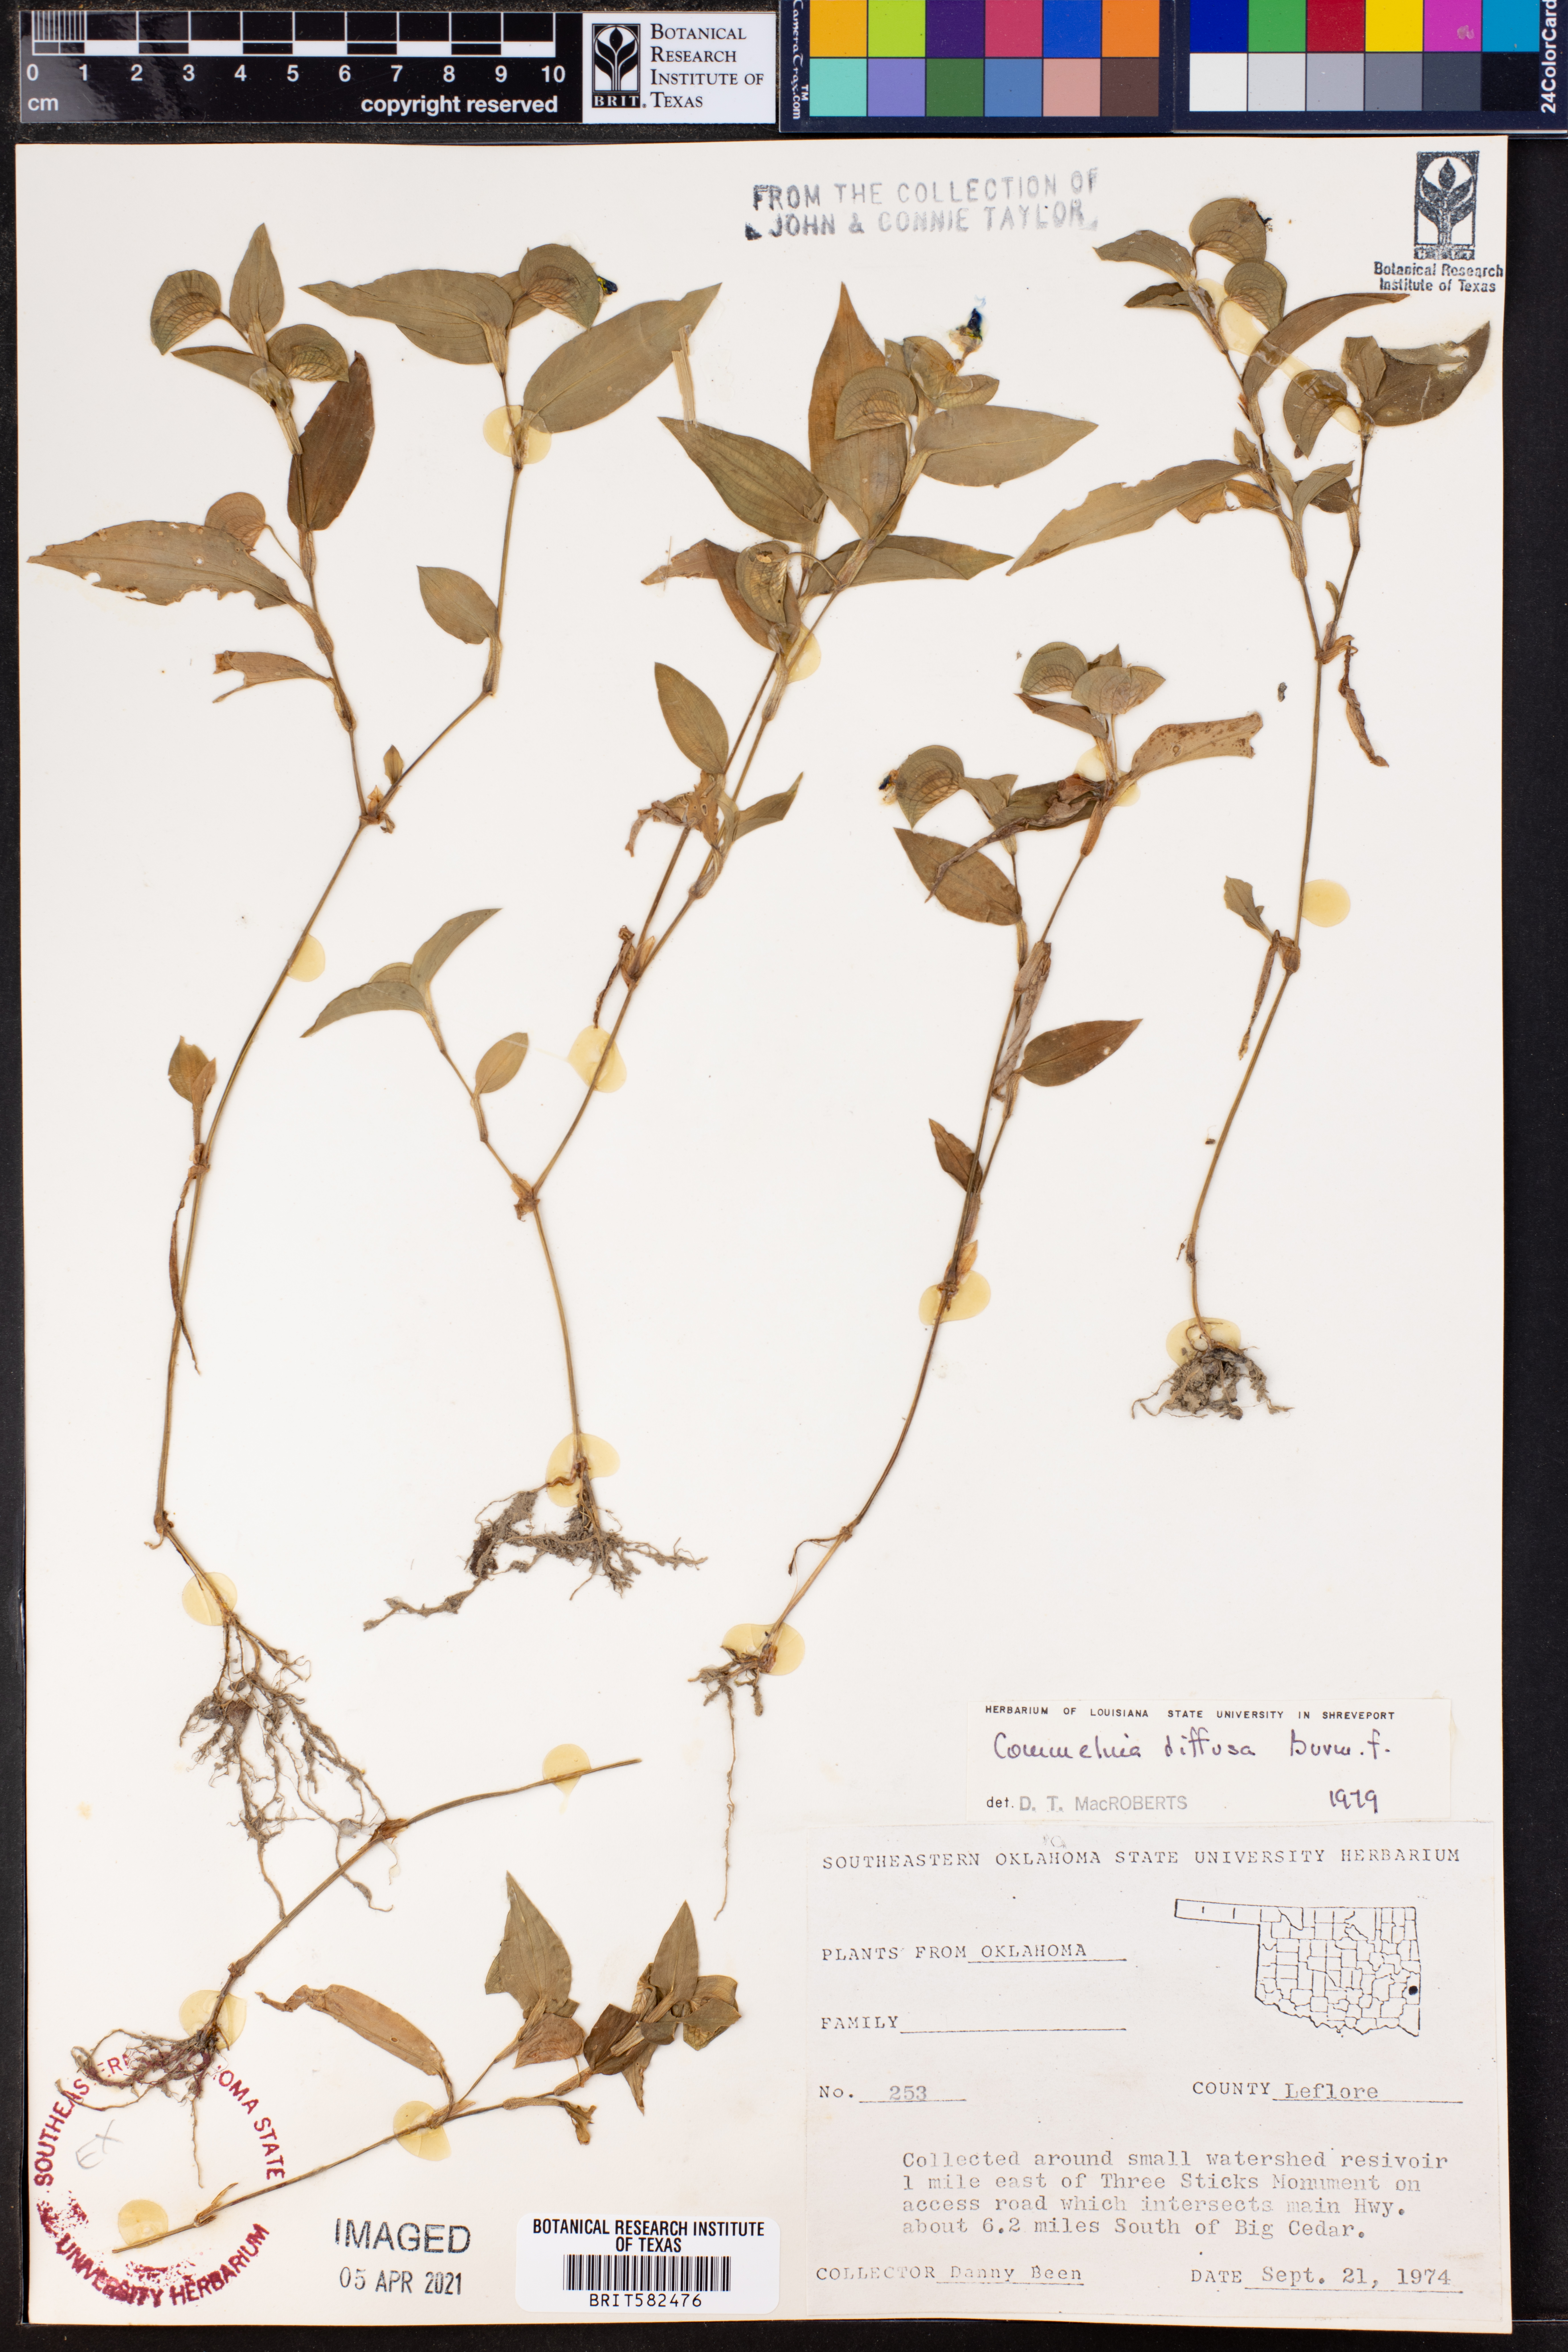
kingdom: Plantae
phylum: Tracheophyta
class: Liliopsida
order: Commelinales
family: Commelinaceae
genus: Commelina
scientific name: Commelina diffusa
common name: Climbing dayflower
